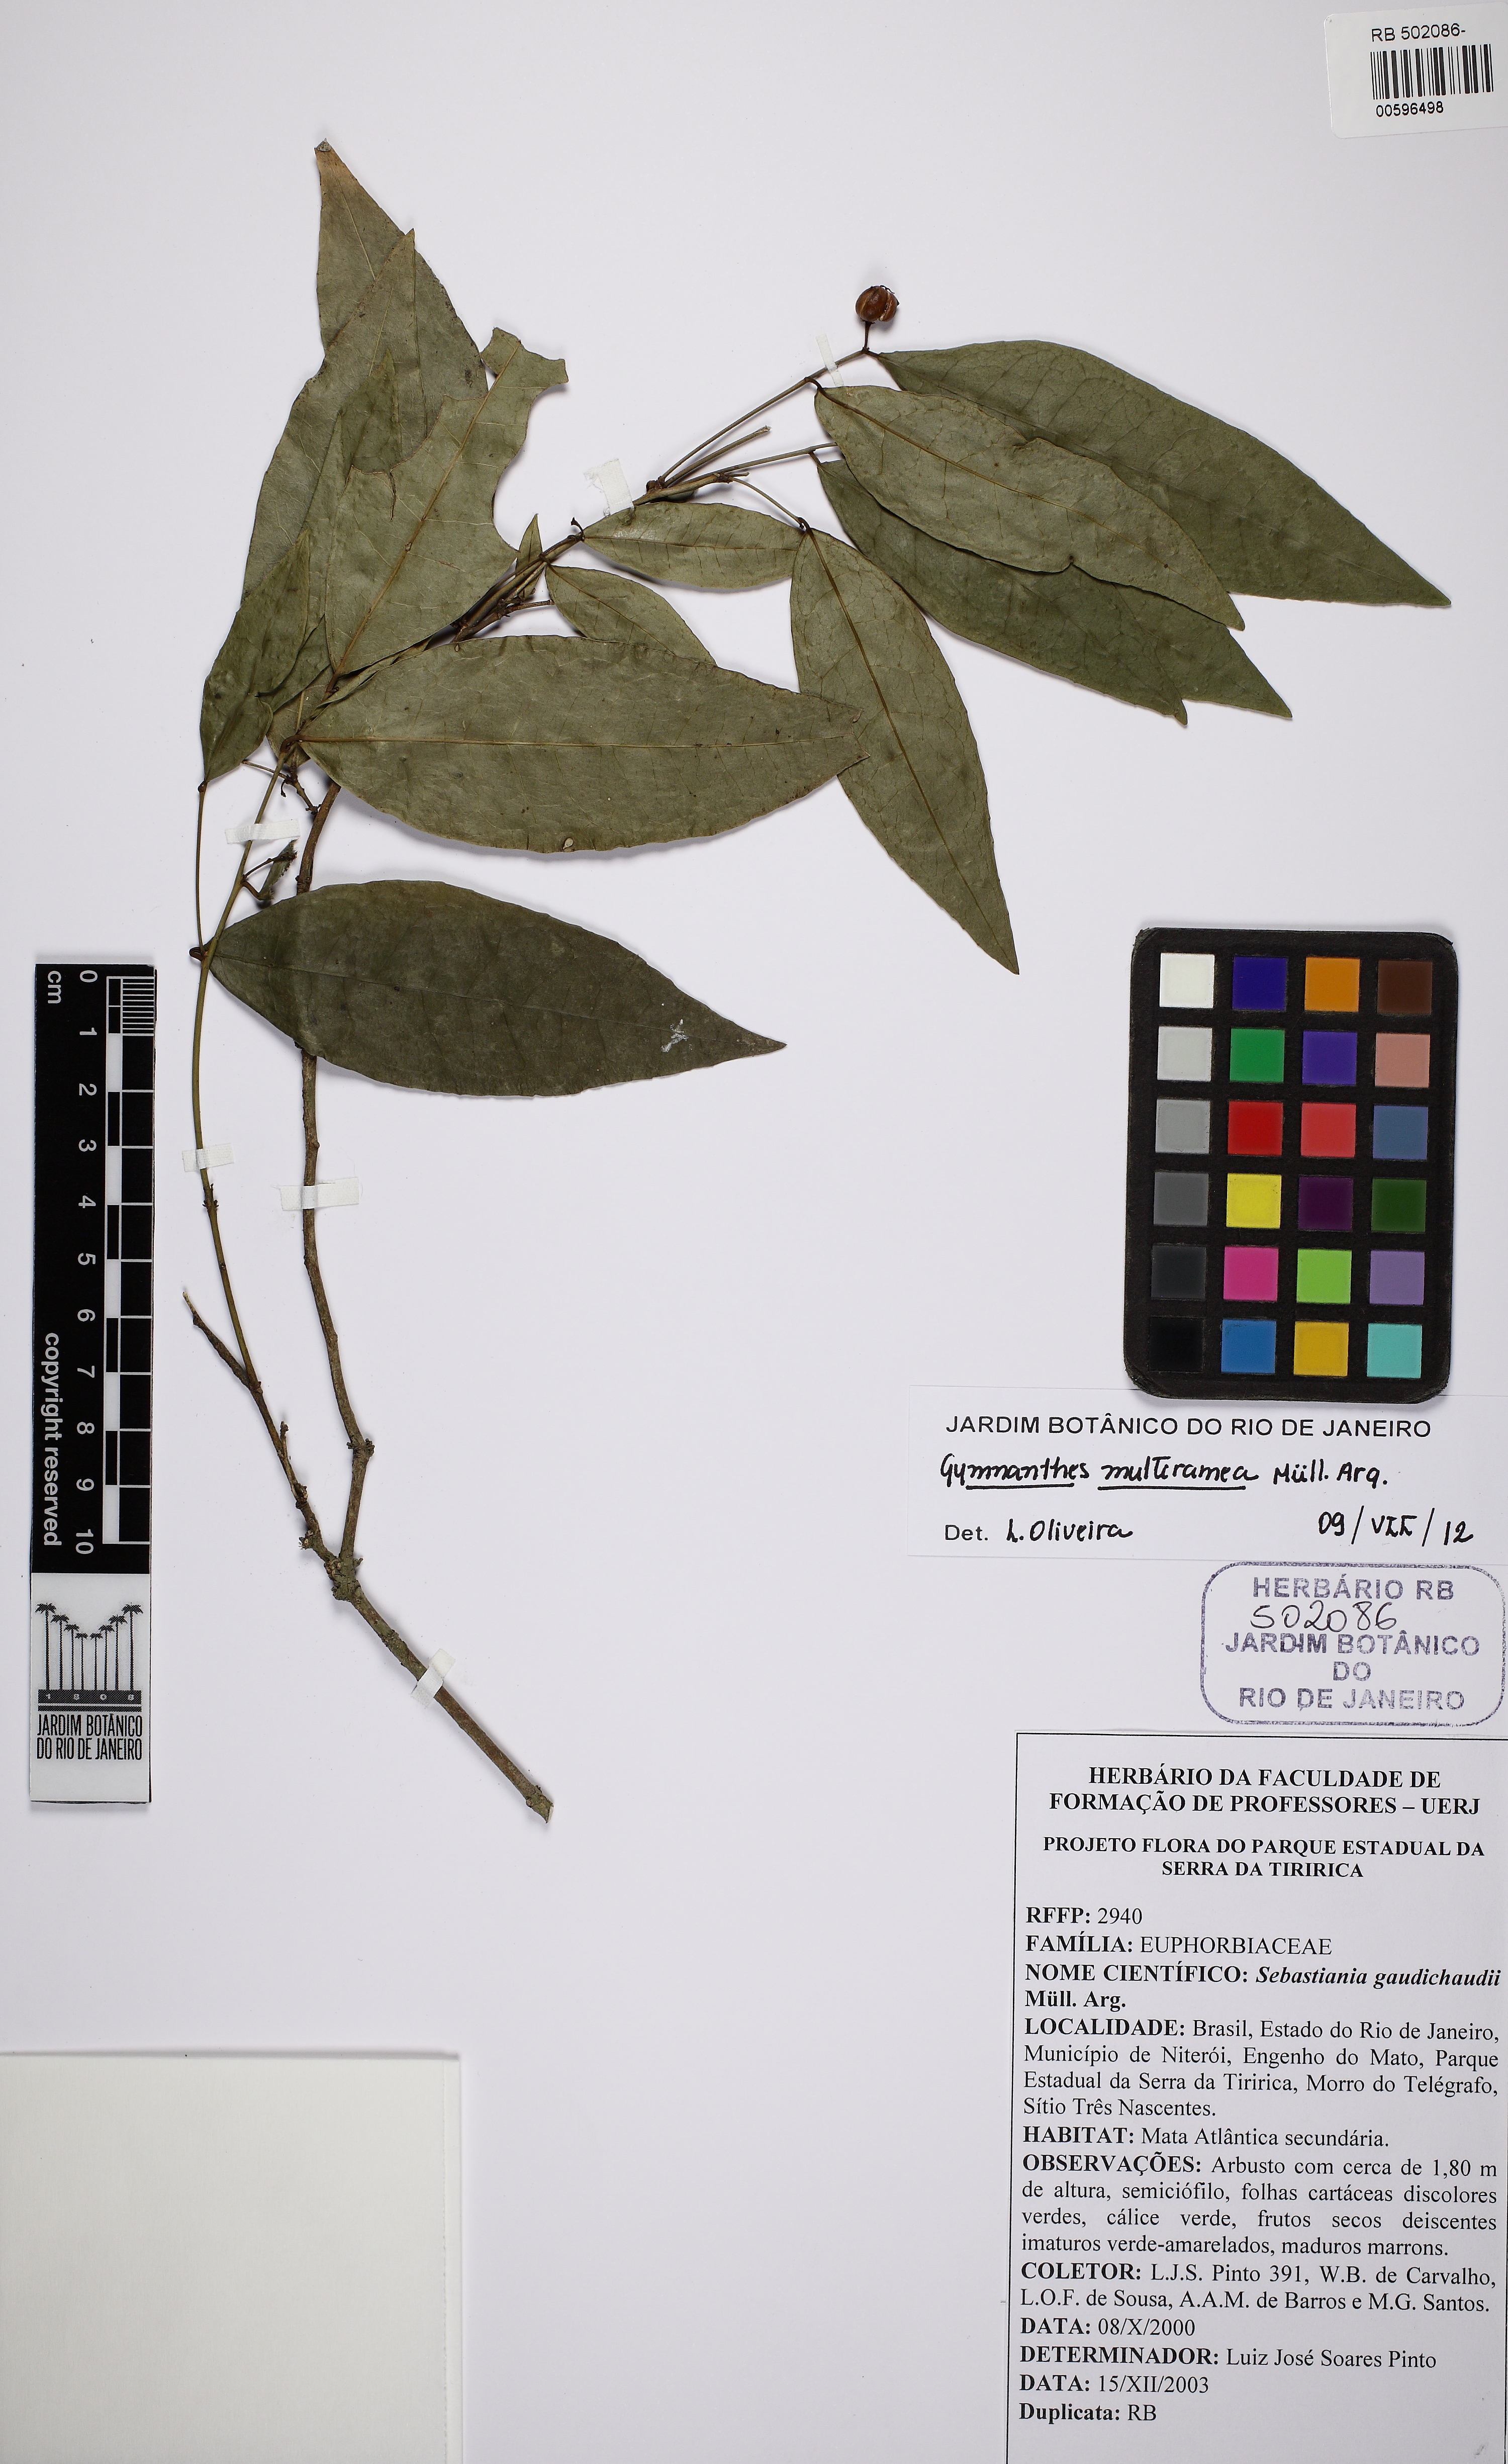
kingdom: Plantae
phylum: Tracheophyta
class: Magnoliopsida
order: Malpighiales
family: Euphorbiaceae
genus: Gymnanthes
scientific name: Gymnanthes glabrata
